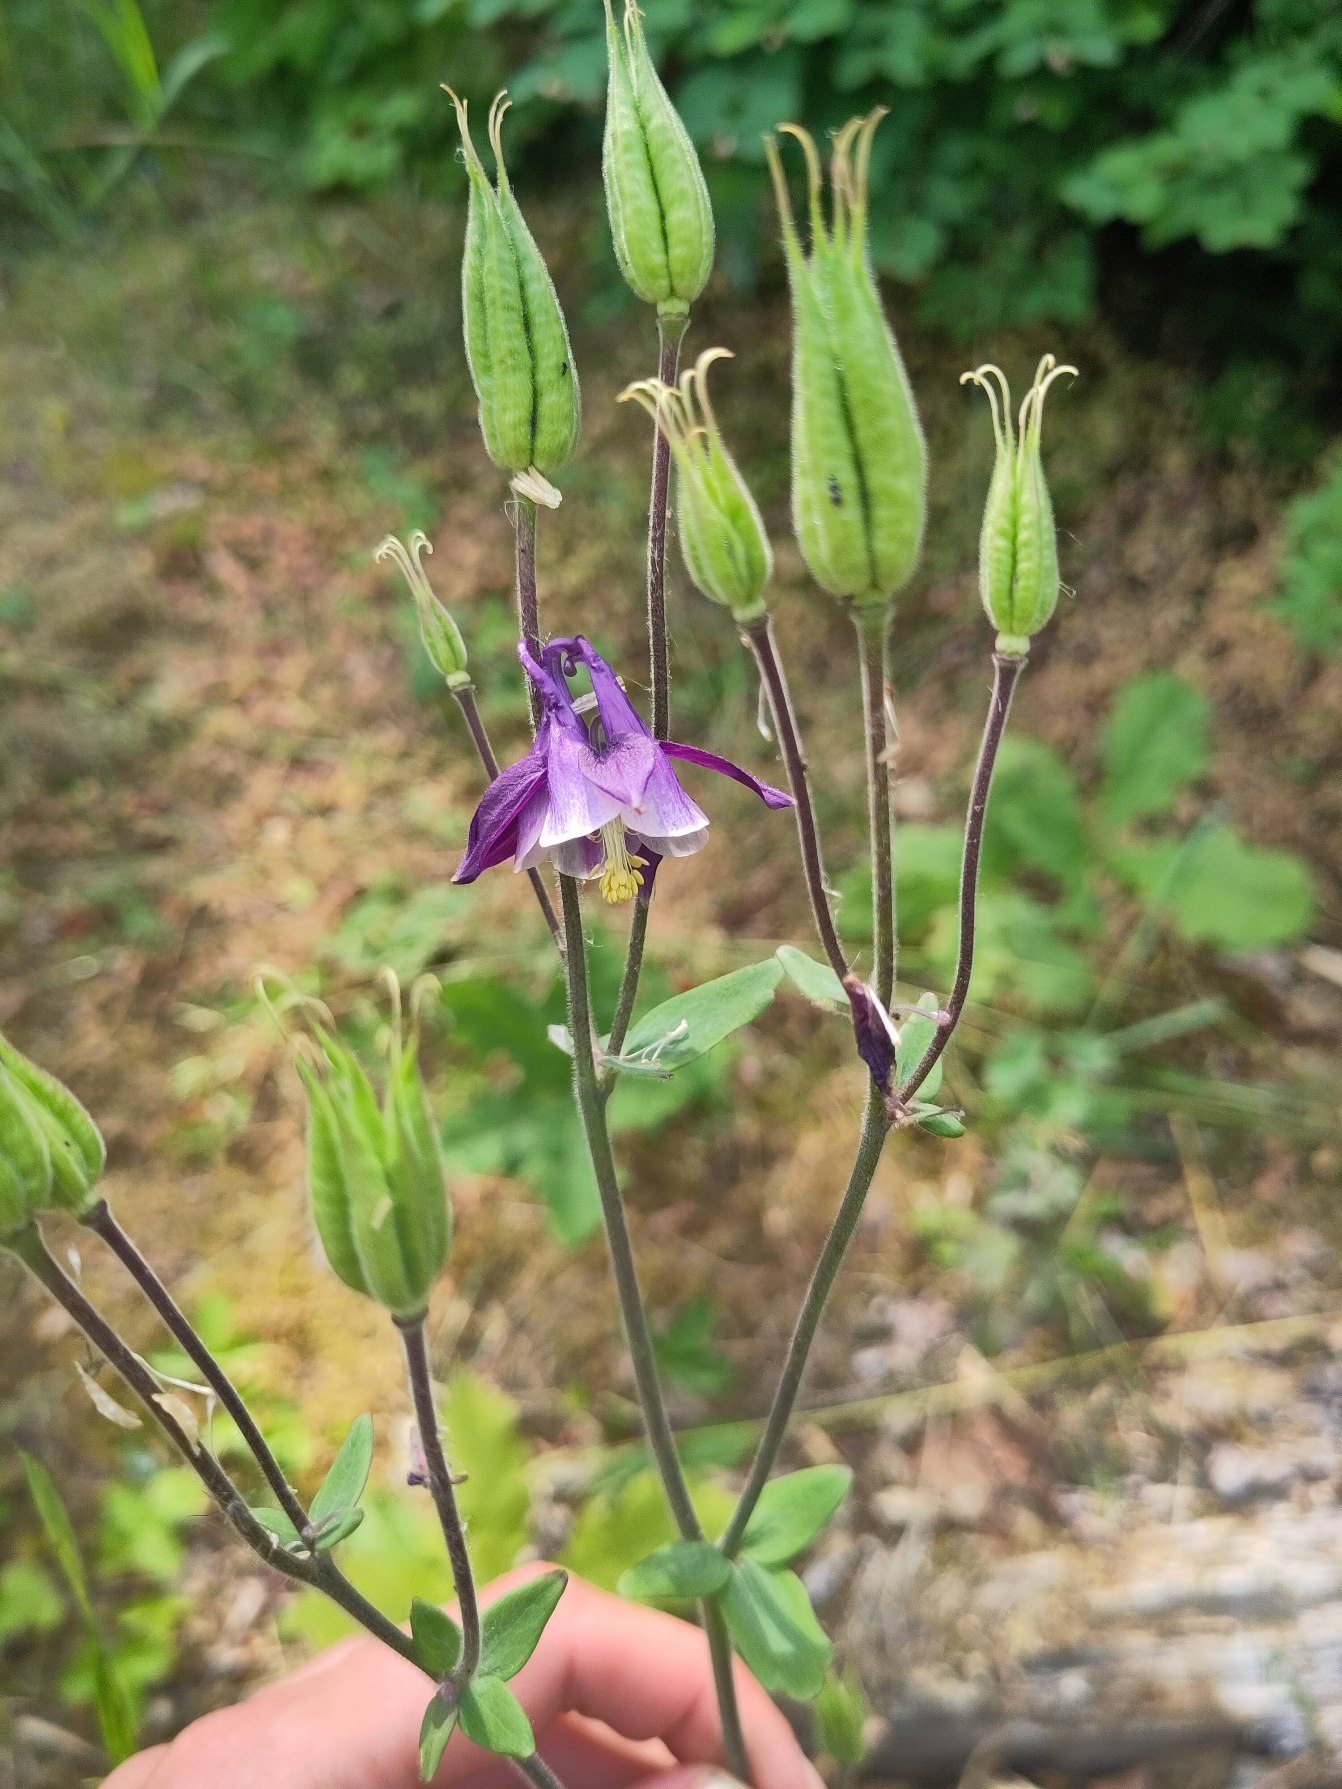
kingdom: Plantae
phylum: Tracheophyta
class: Magnoliopsida
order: Ranunculales
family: Ranunculaceae
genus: Aquilegia
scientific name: Aquilegia vulgaris
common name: Akeleje
